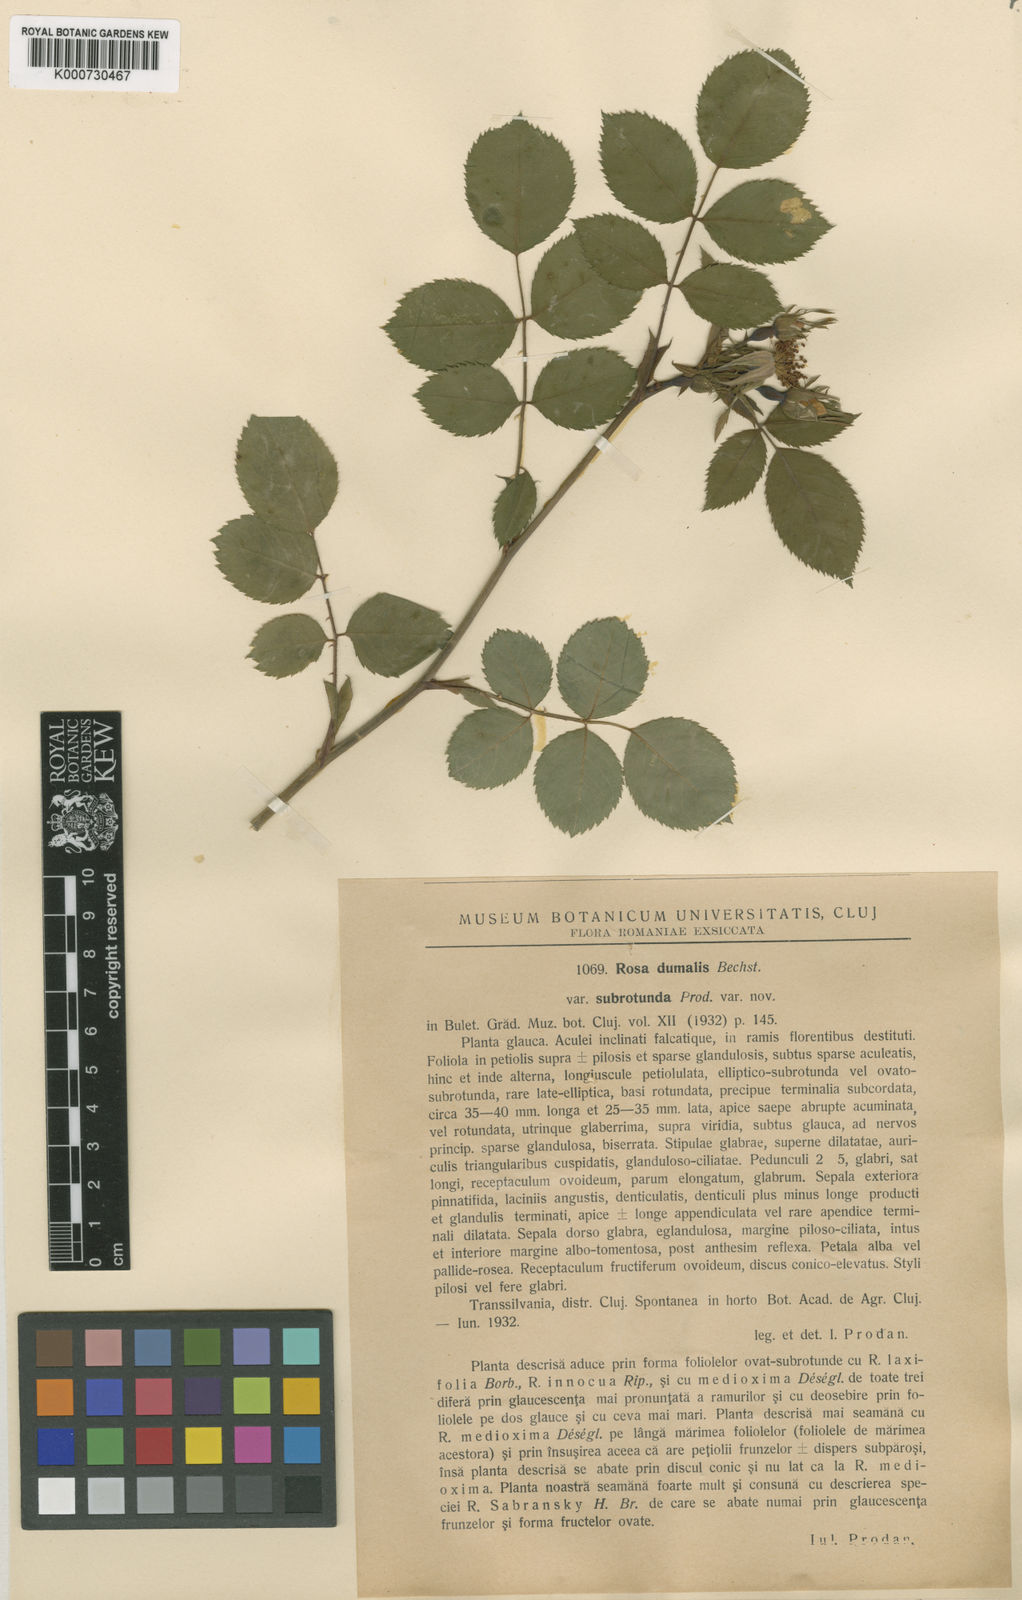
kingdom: Plantae
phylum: Tracheophyta
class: Magnoliopsida
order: Rosales
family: Rosaceae
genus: Rosa
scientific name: Rosa canina
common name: Dog rose
